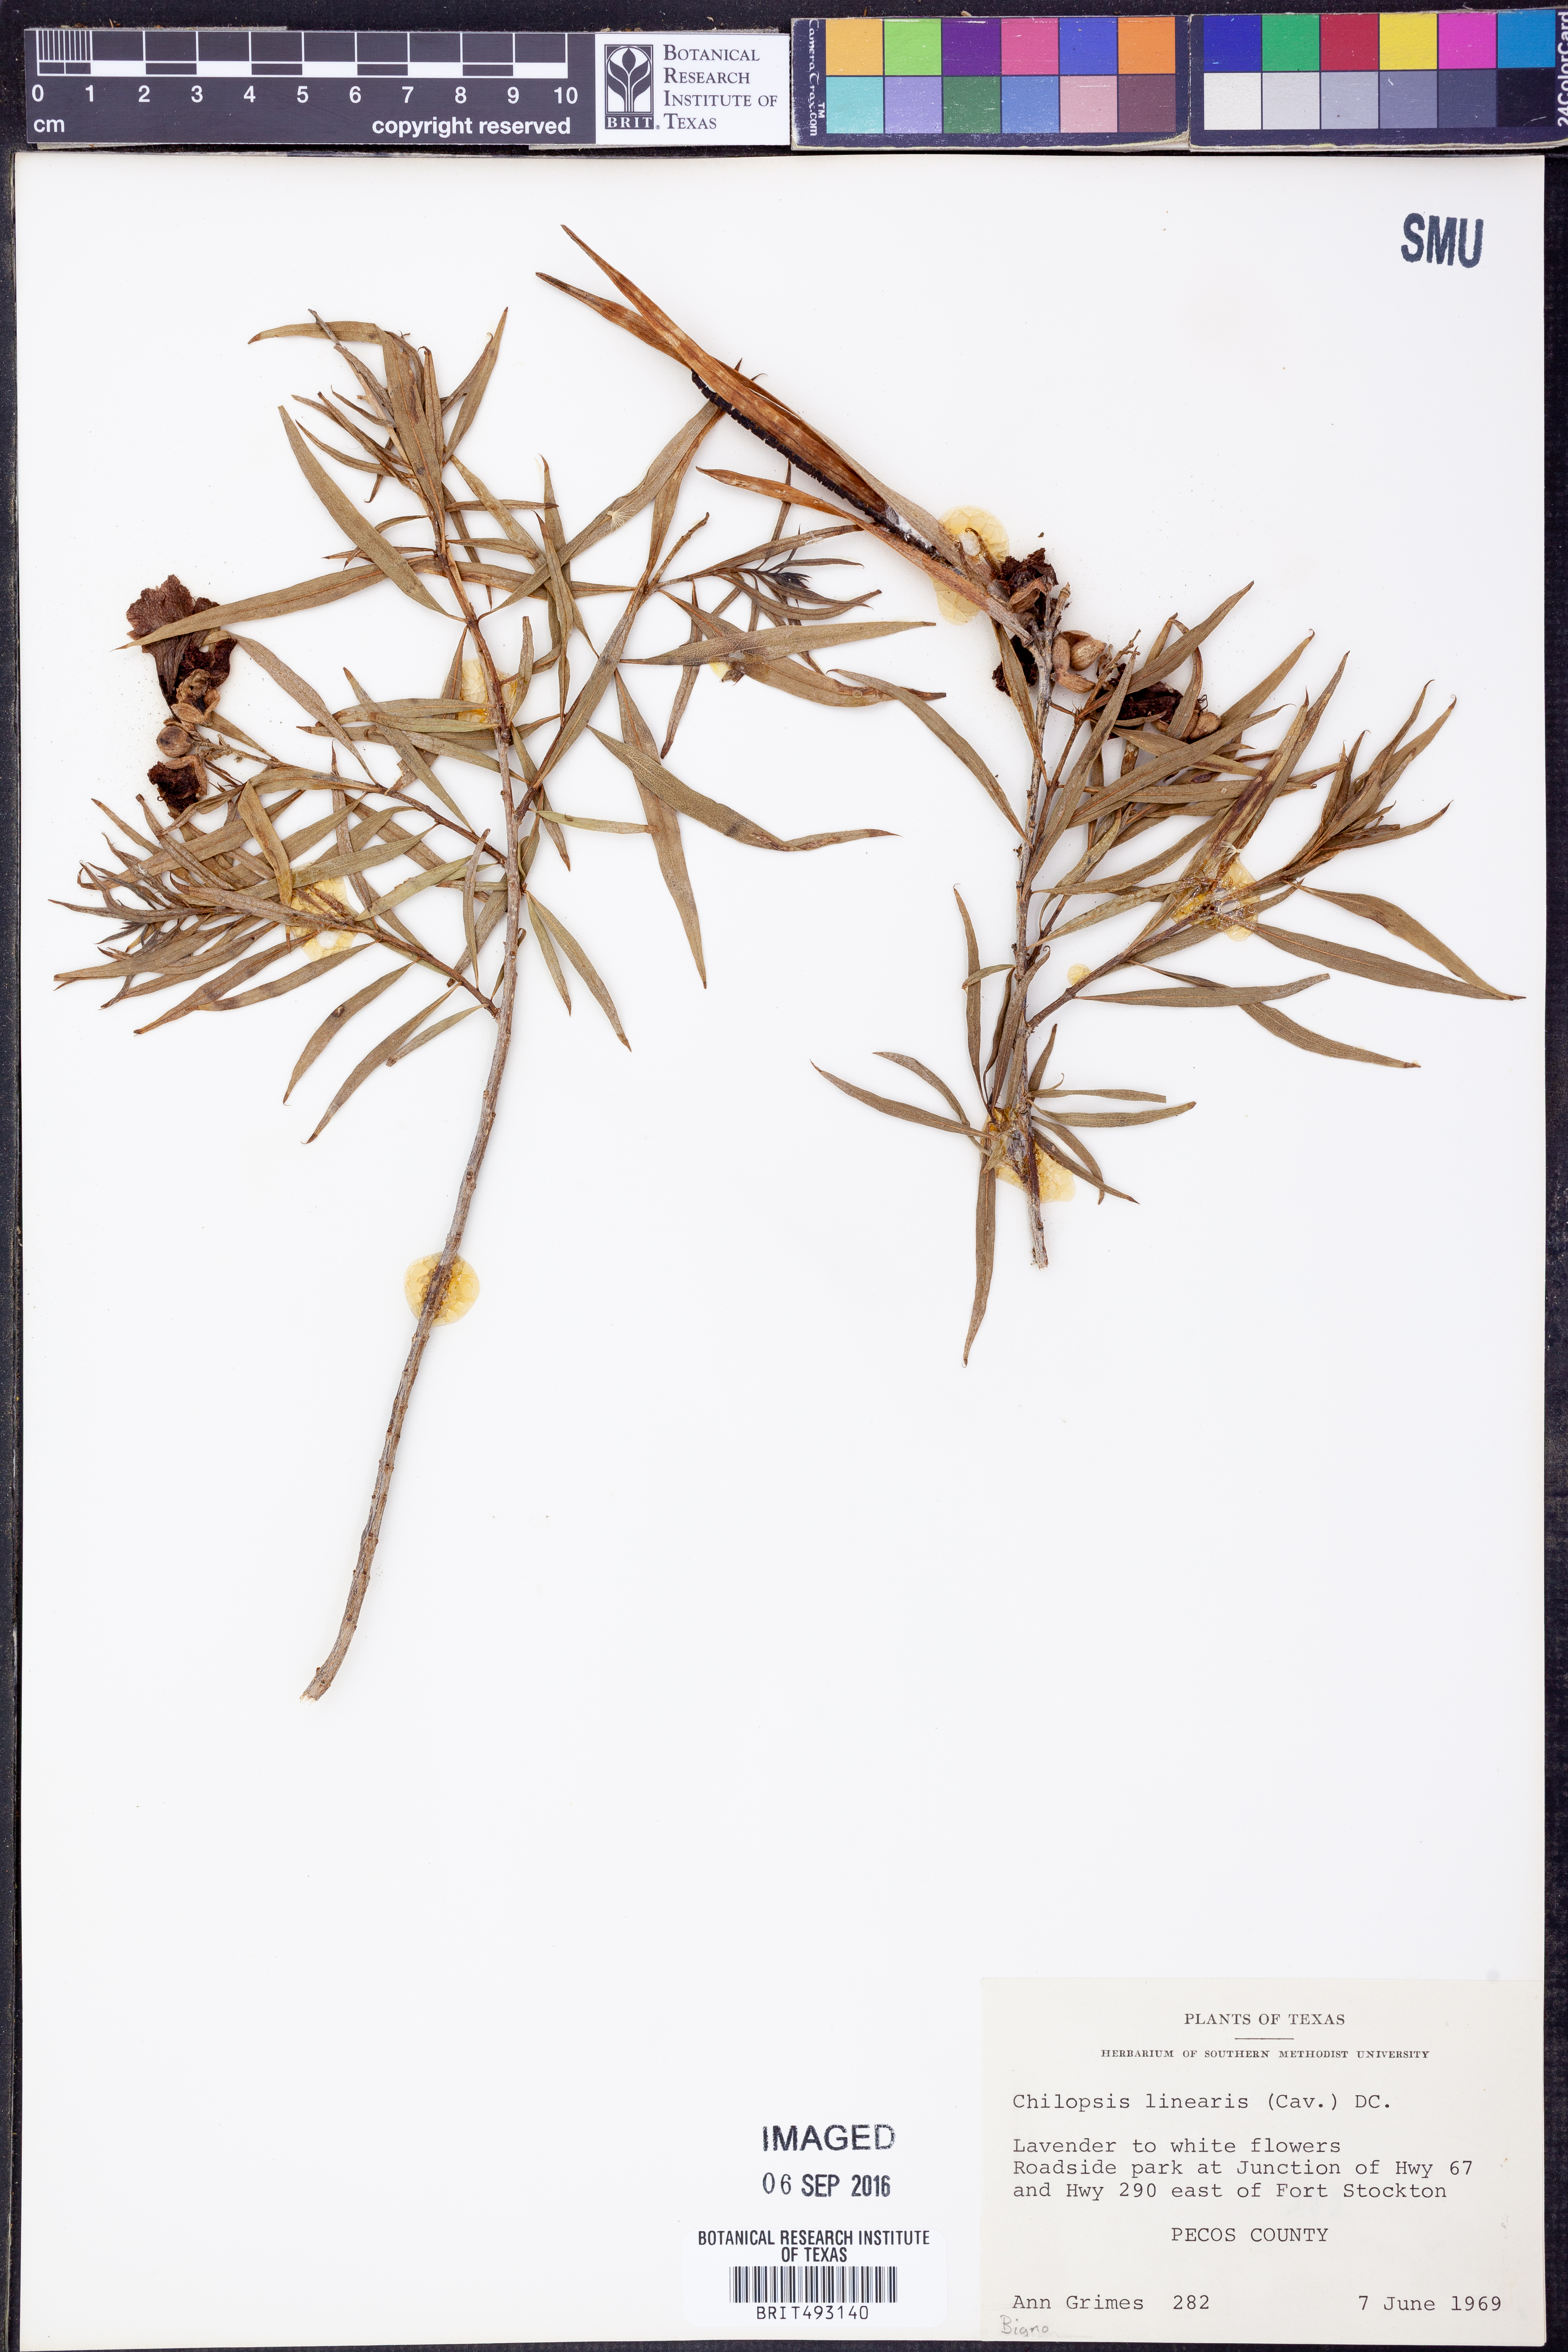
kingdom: Plantae
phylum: Tracheophyta
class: Magnoliopsida
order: Lamiales
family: Bignoniaceae
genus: Chilopsis
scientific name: Chilopsis linearis
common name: Desert-willow
